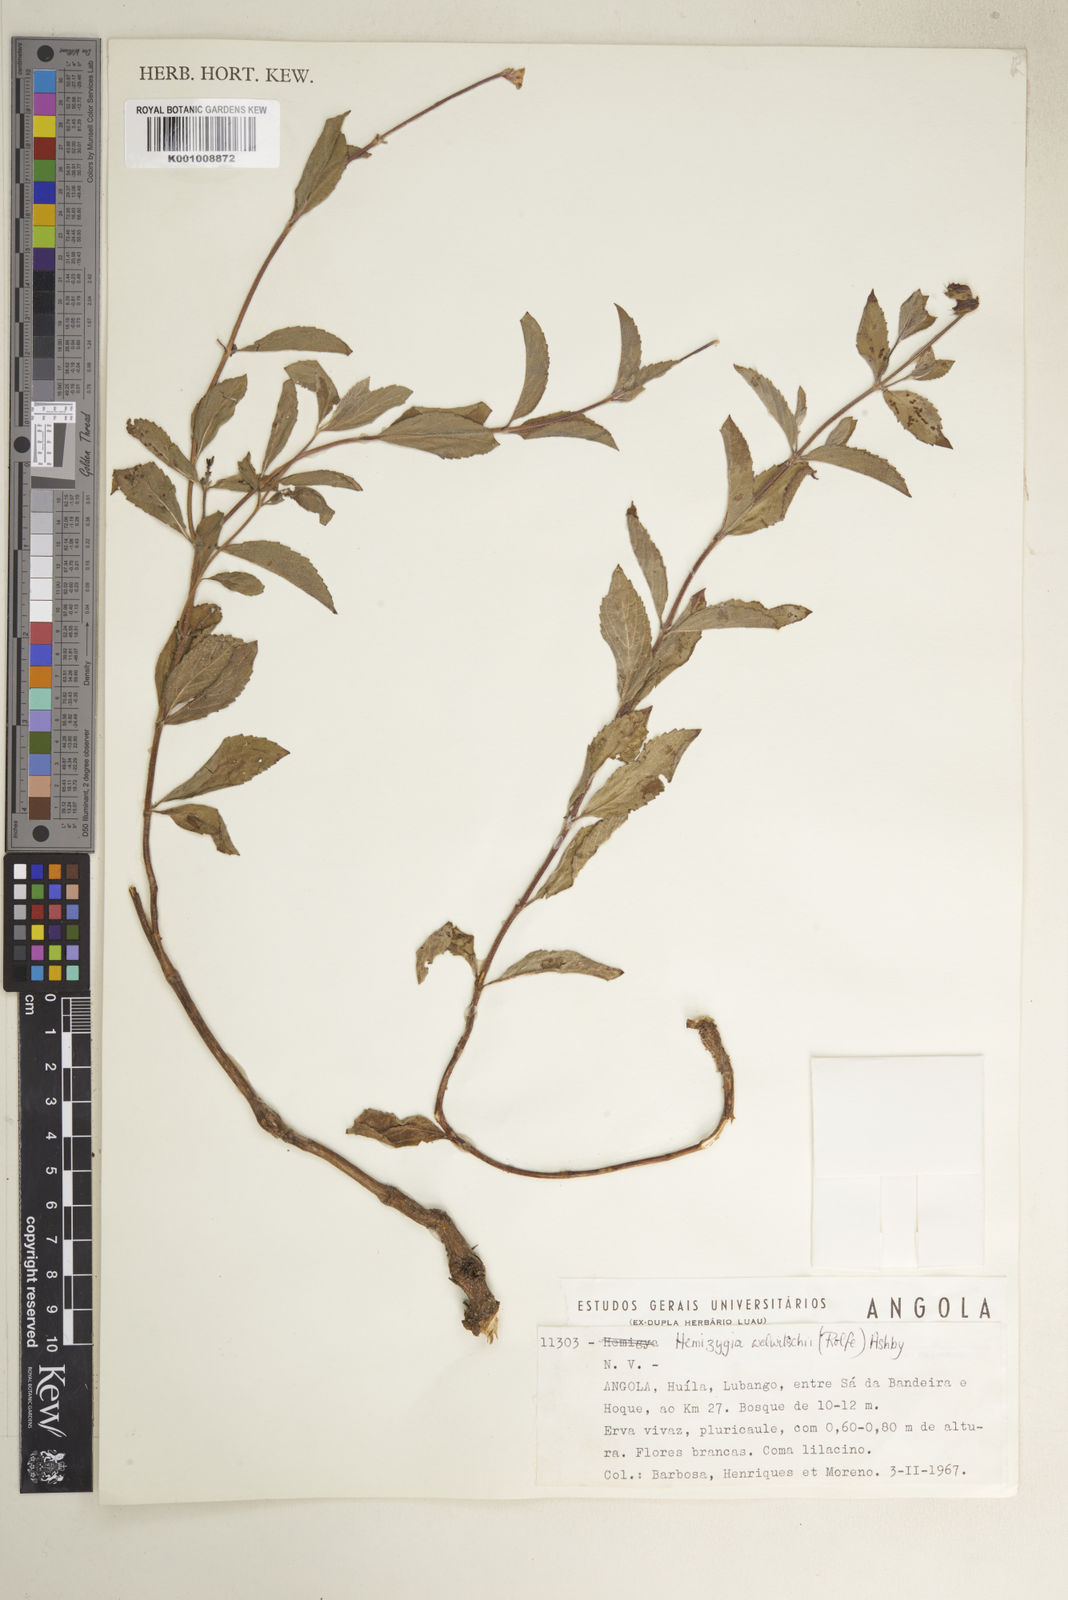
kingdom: Plantae
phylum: Tracheophyta
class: Magnoliopsida
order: Lamiales
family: Lamiaceae
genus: Syncolostemon
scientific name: Syncolostemon welwitschii
